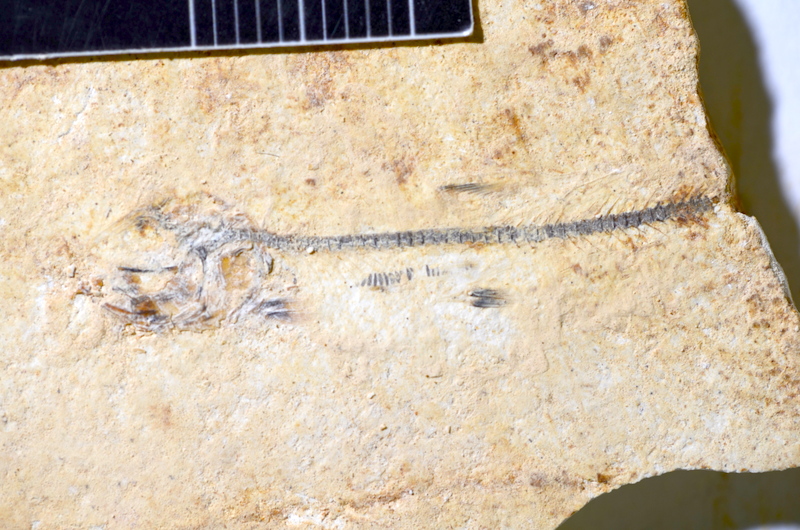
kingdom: Animalia
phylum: Chordata
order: Salmoniformes
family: Orthogonikleithridae
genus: Orthogonikleithrus
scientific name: Orthogonikleithrus hoelli
